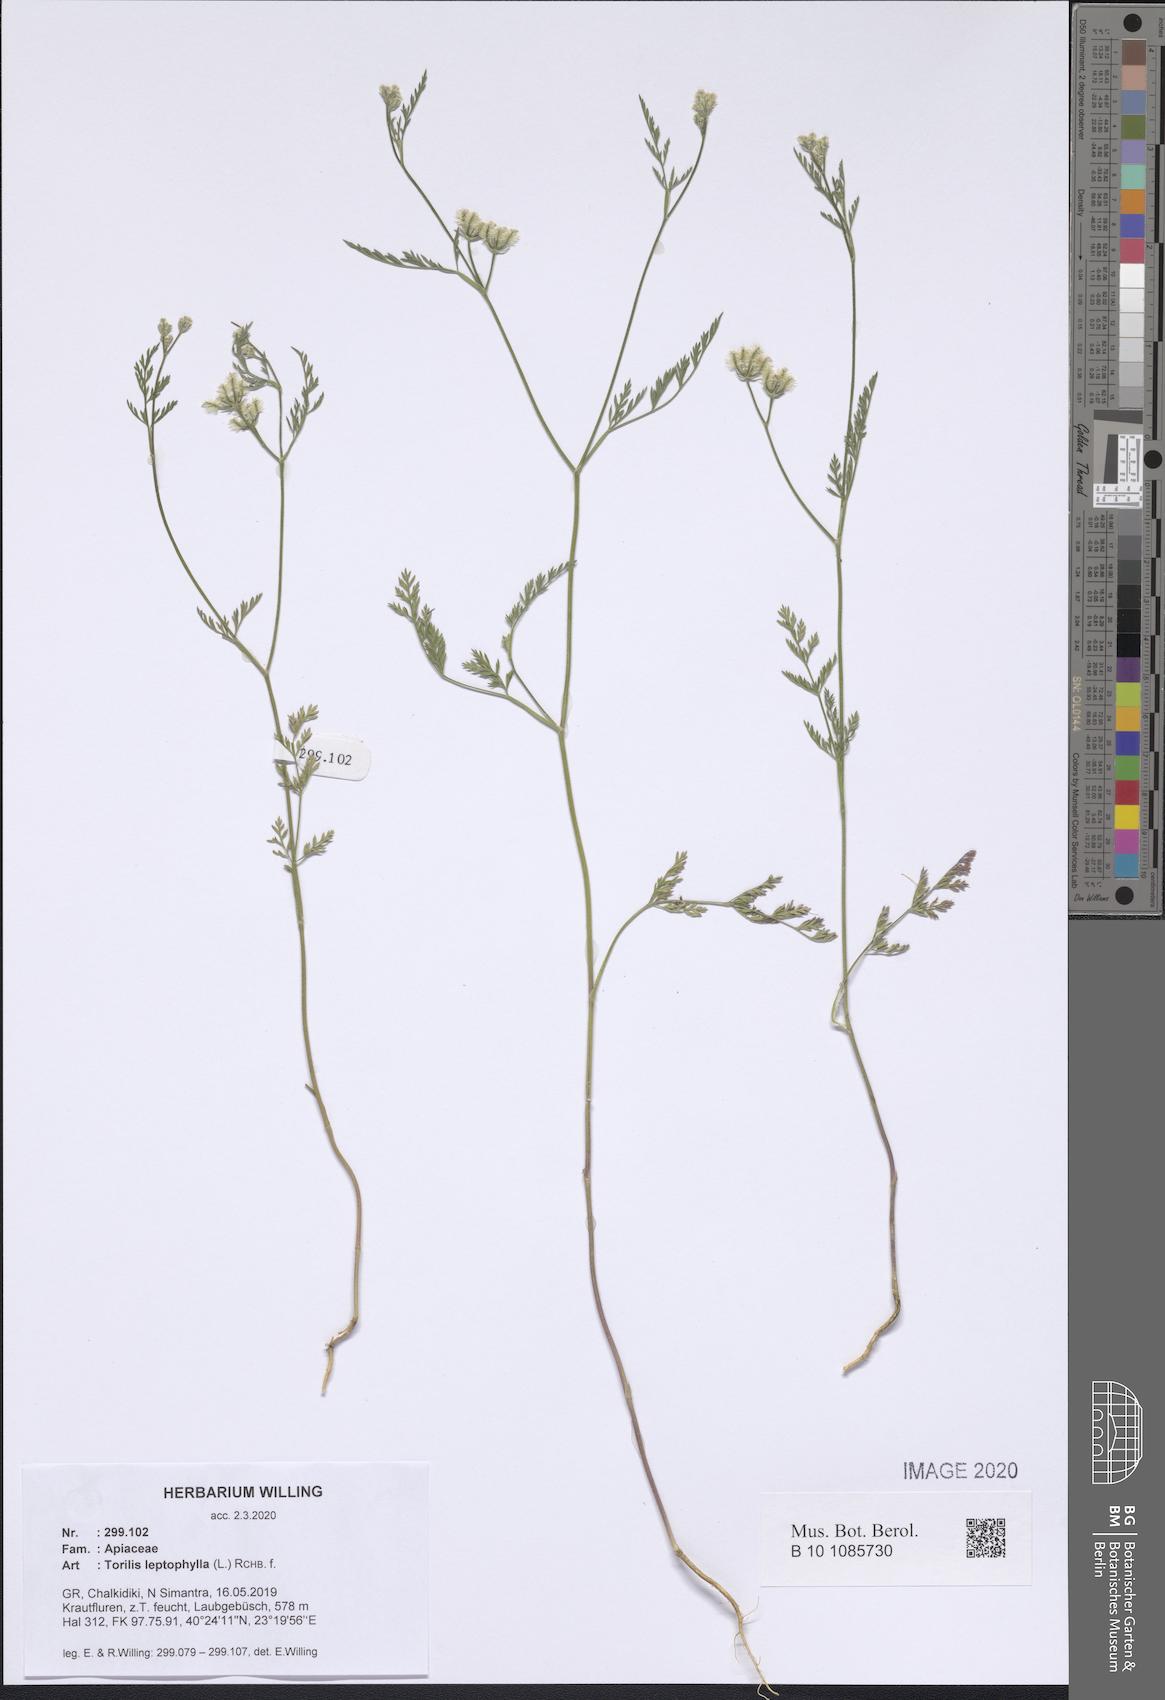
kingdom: Plantae
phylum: Tracheophyta
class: Magnoliopsida
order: Apiales
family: Apiaceae
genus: Torilis
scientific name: Torilis leptophylla
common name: Bristlefruit hedgeparsley
